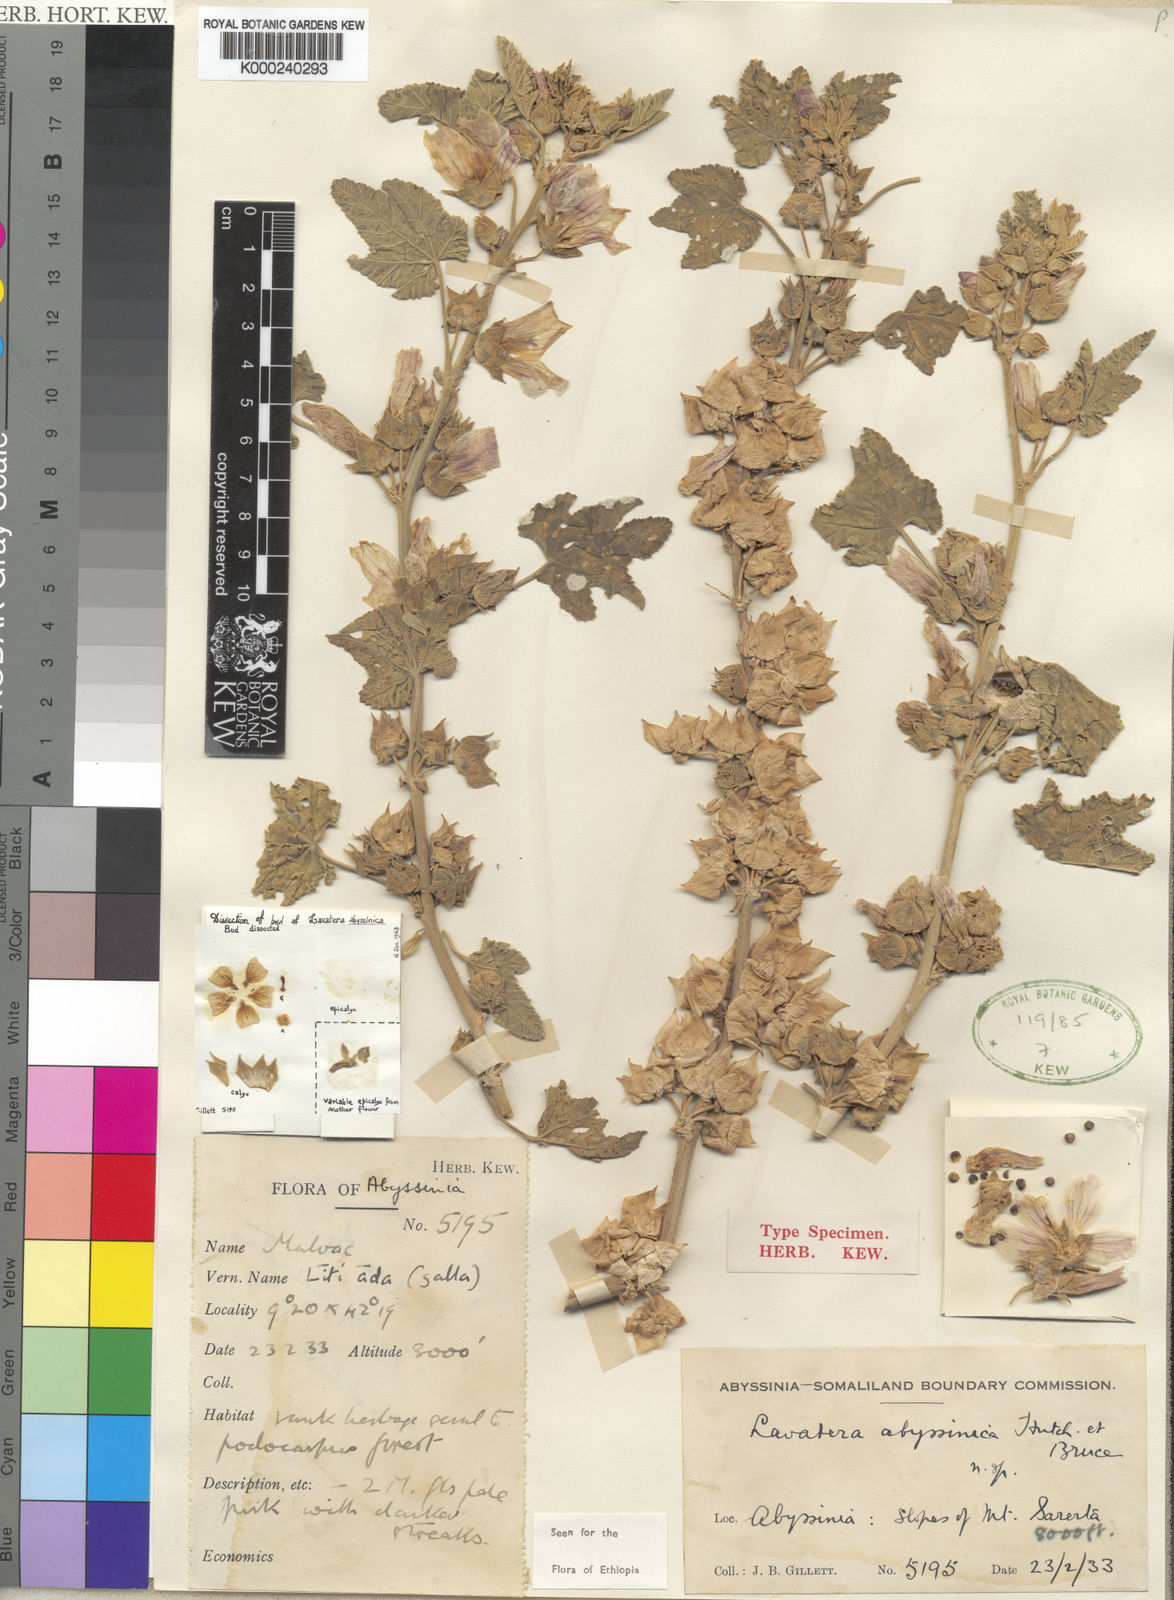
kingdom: Plantae
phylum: Tracheophyta
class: Magnoliopsida
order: Malvales
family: Malvaceae
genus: Malva
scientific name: Malva aethiopica
